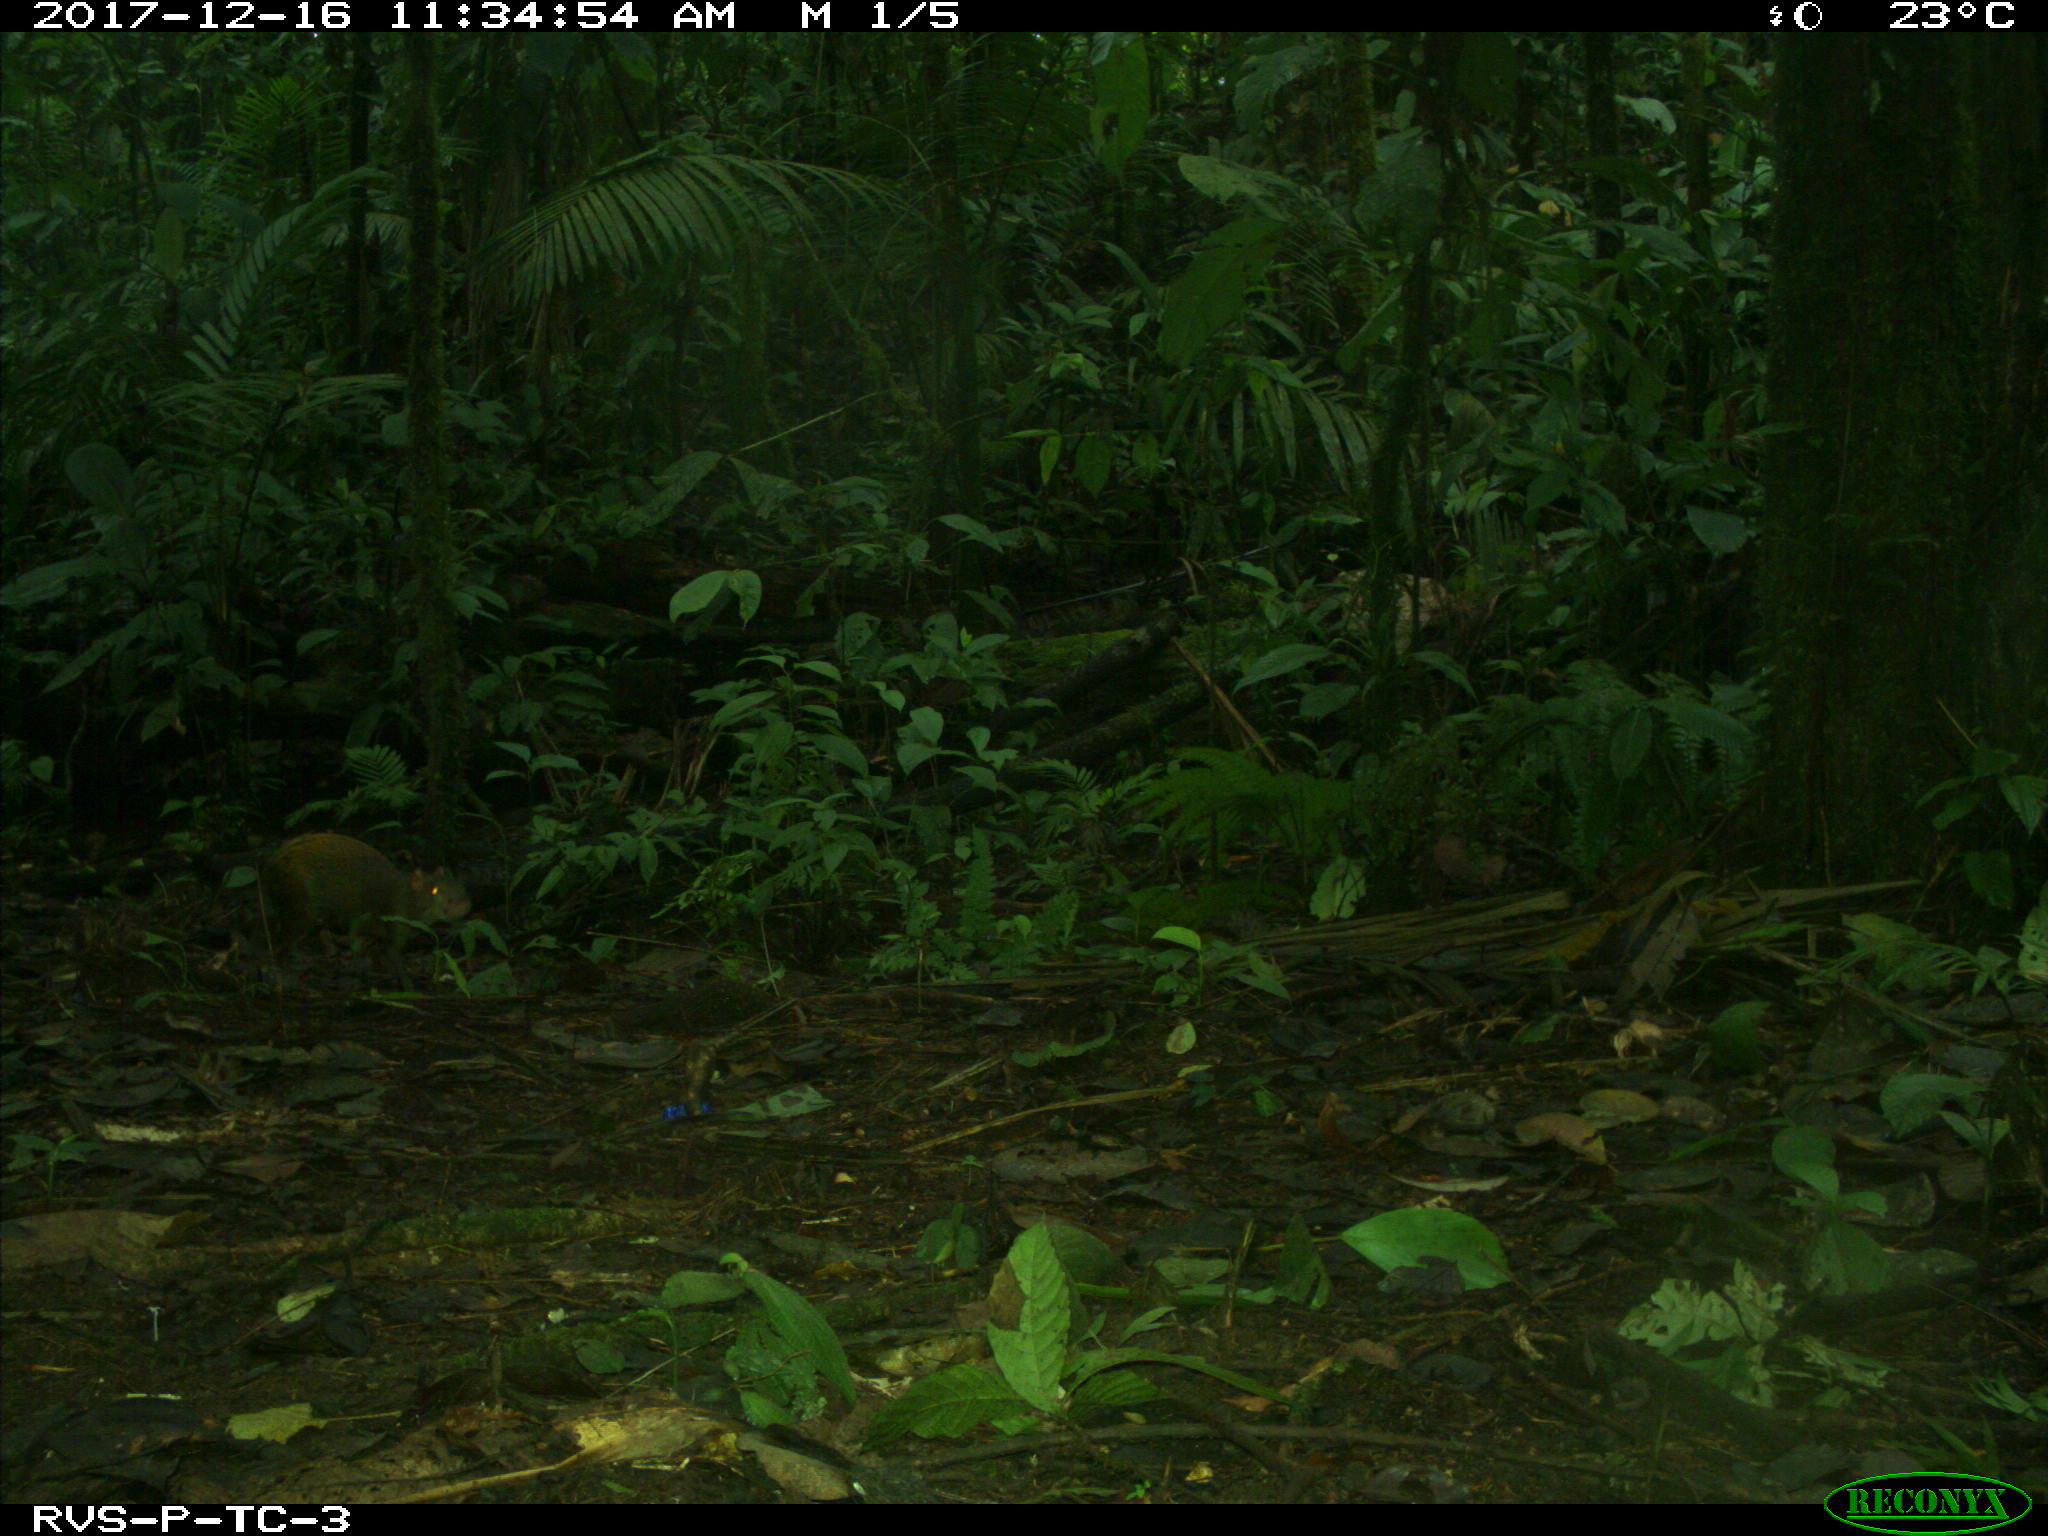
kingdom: Animalia
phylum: Chordata
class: Mammalia
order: Rodentia
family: Dasyproctidae
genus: Dasyprocta
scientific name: Dasyprocta punctata
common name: Central american agouti
